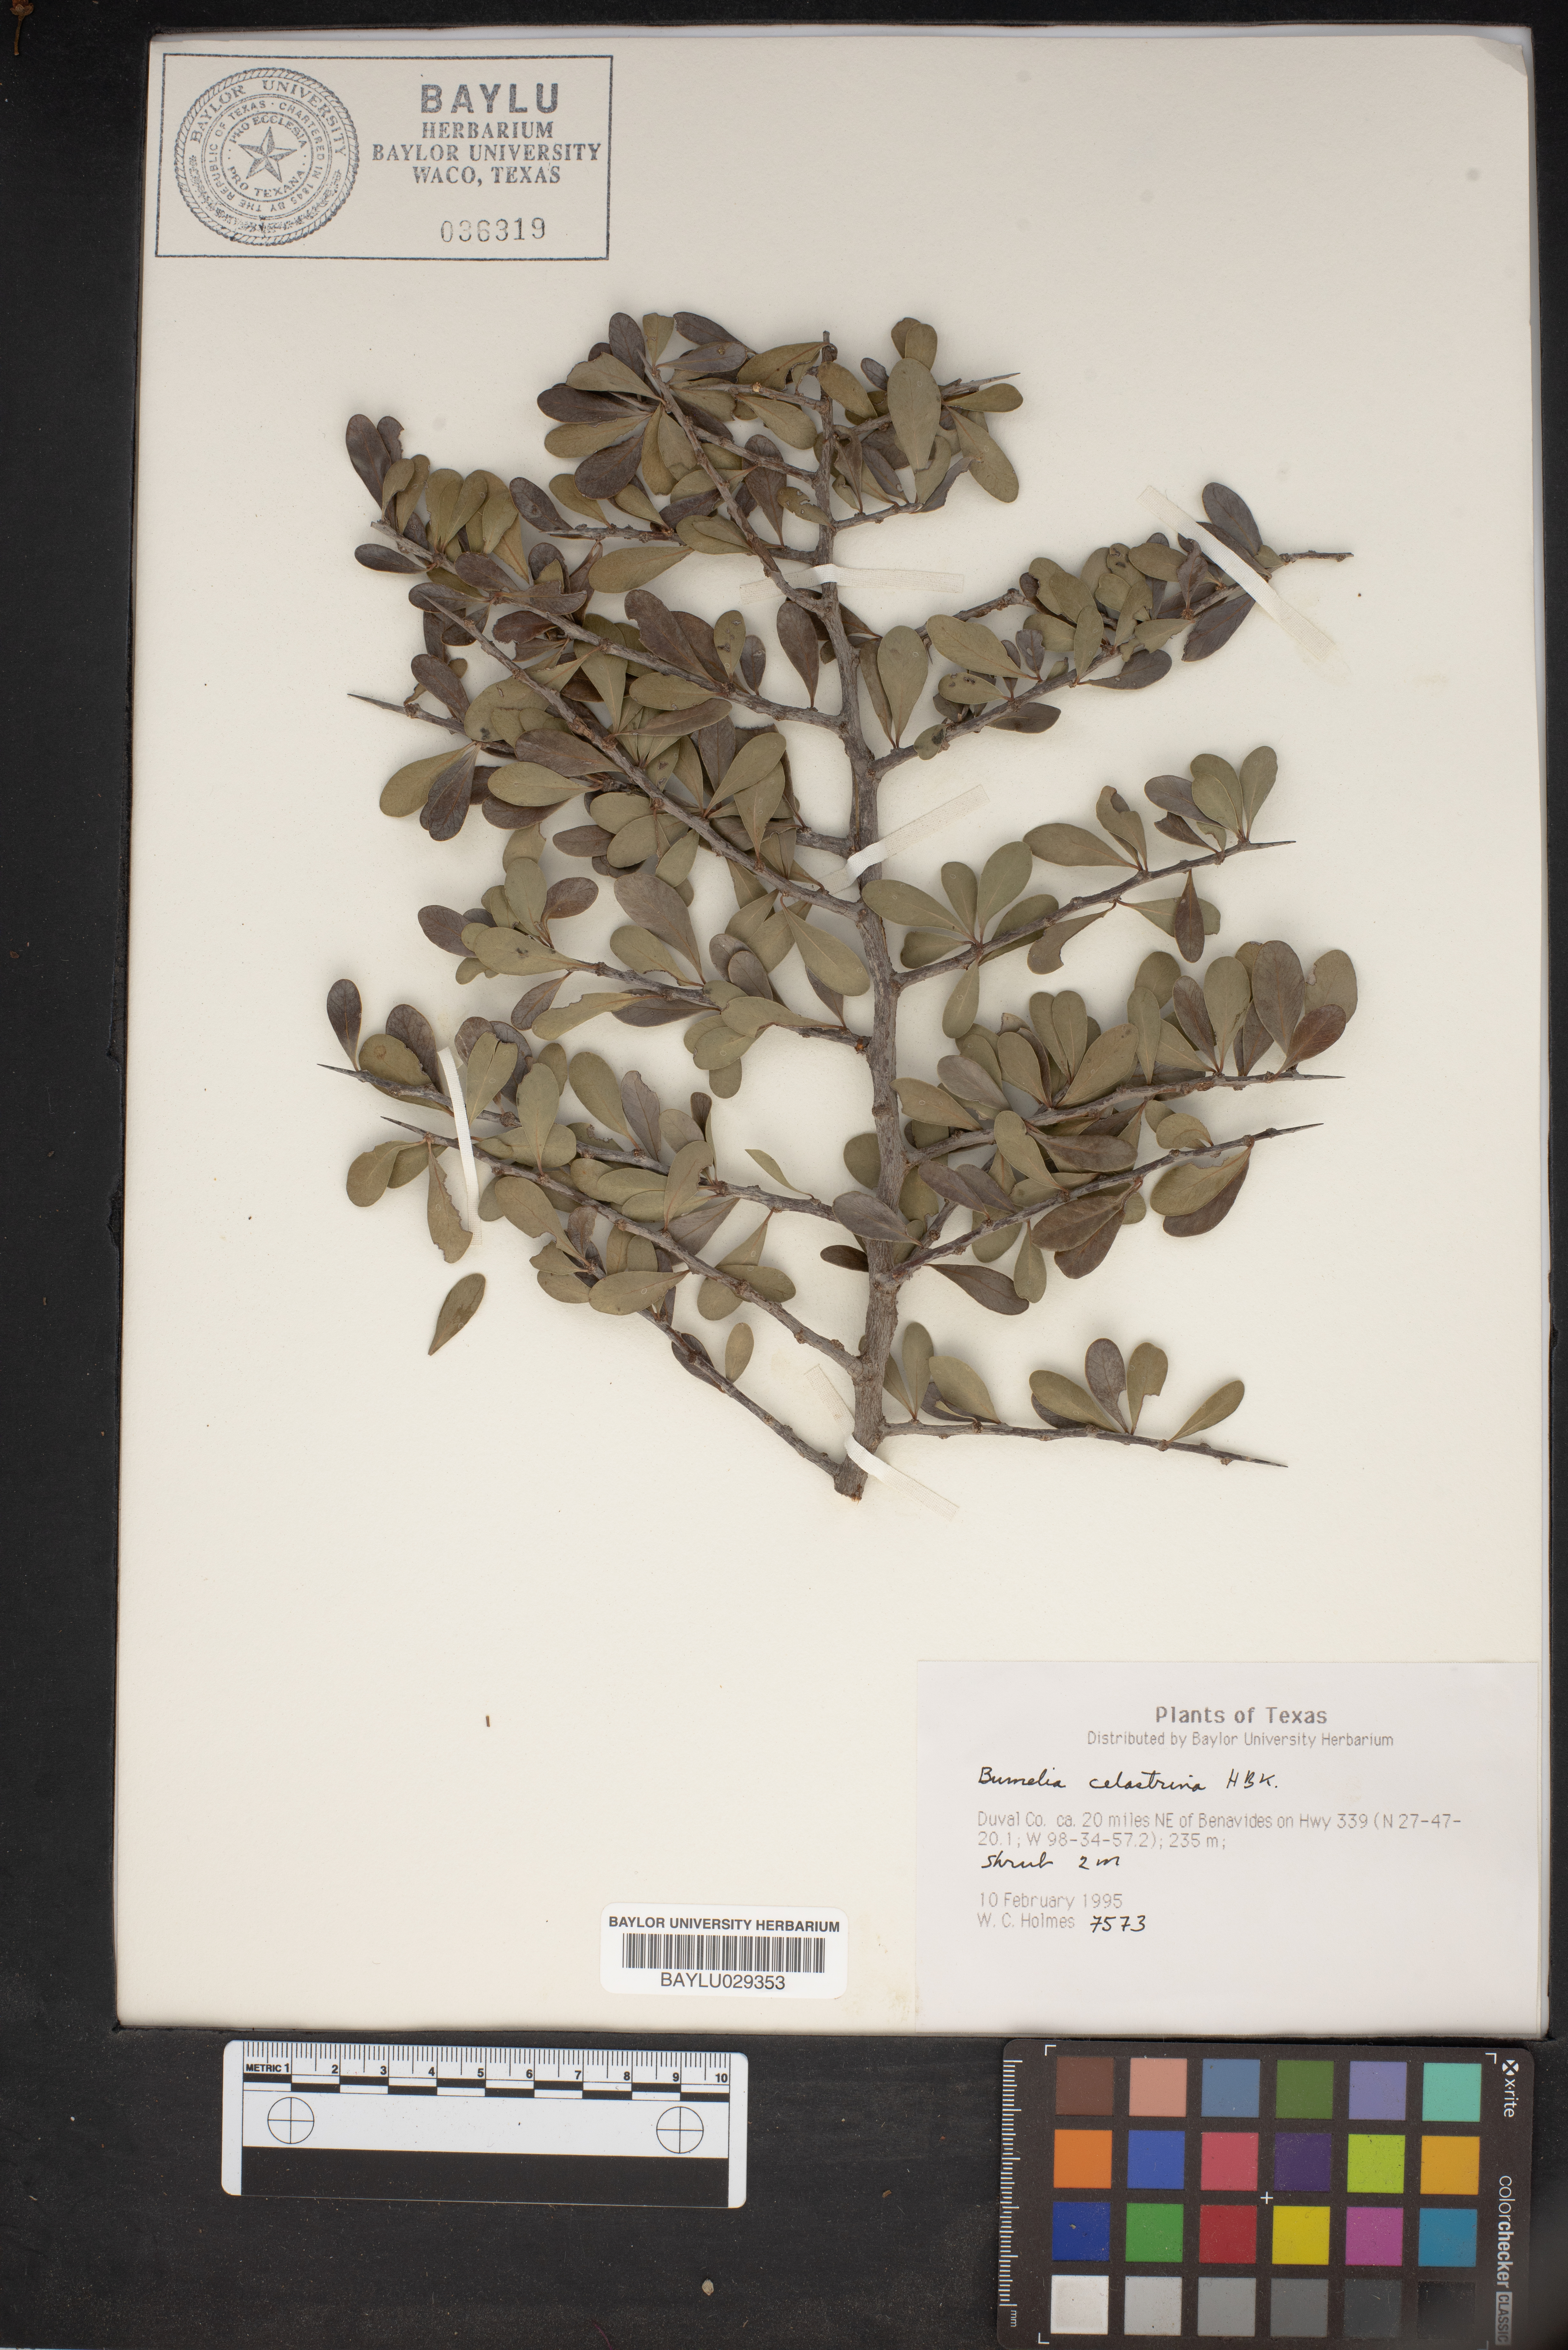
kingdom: Plantae
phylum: Tracheophyta
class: Magnoliopsida
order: Ericales
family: Sapotaceae
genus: Sideroxylon
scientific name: Sideroxylon celastrinum
